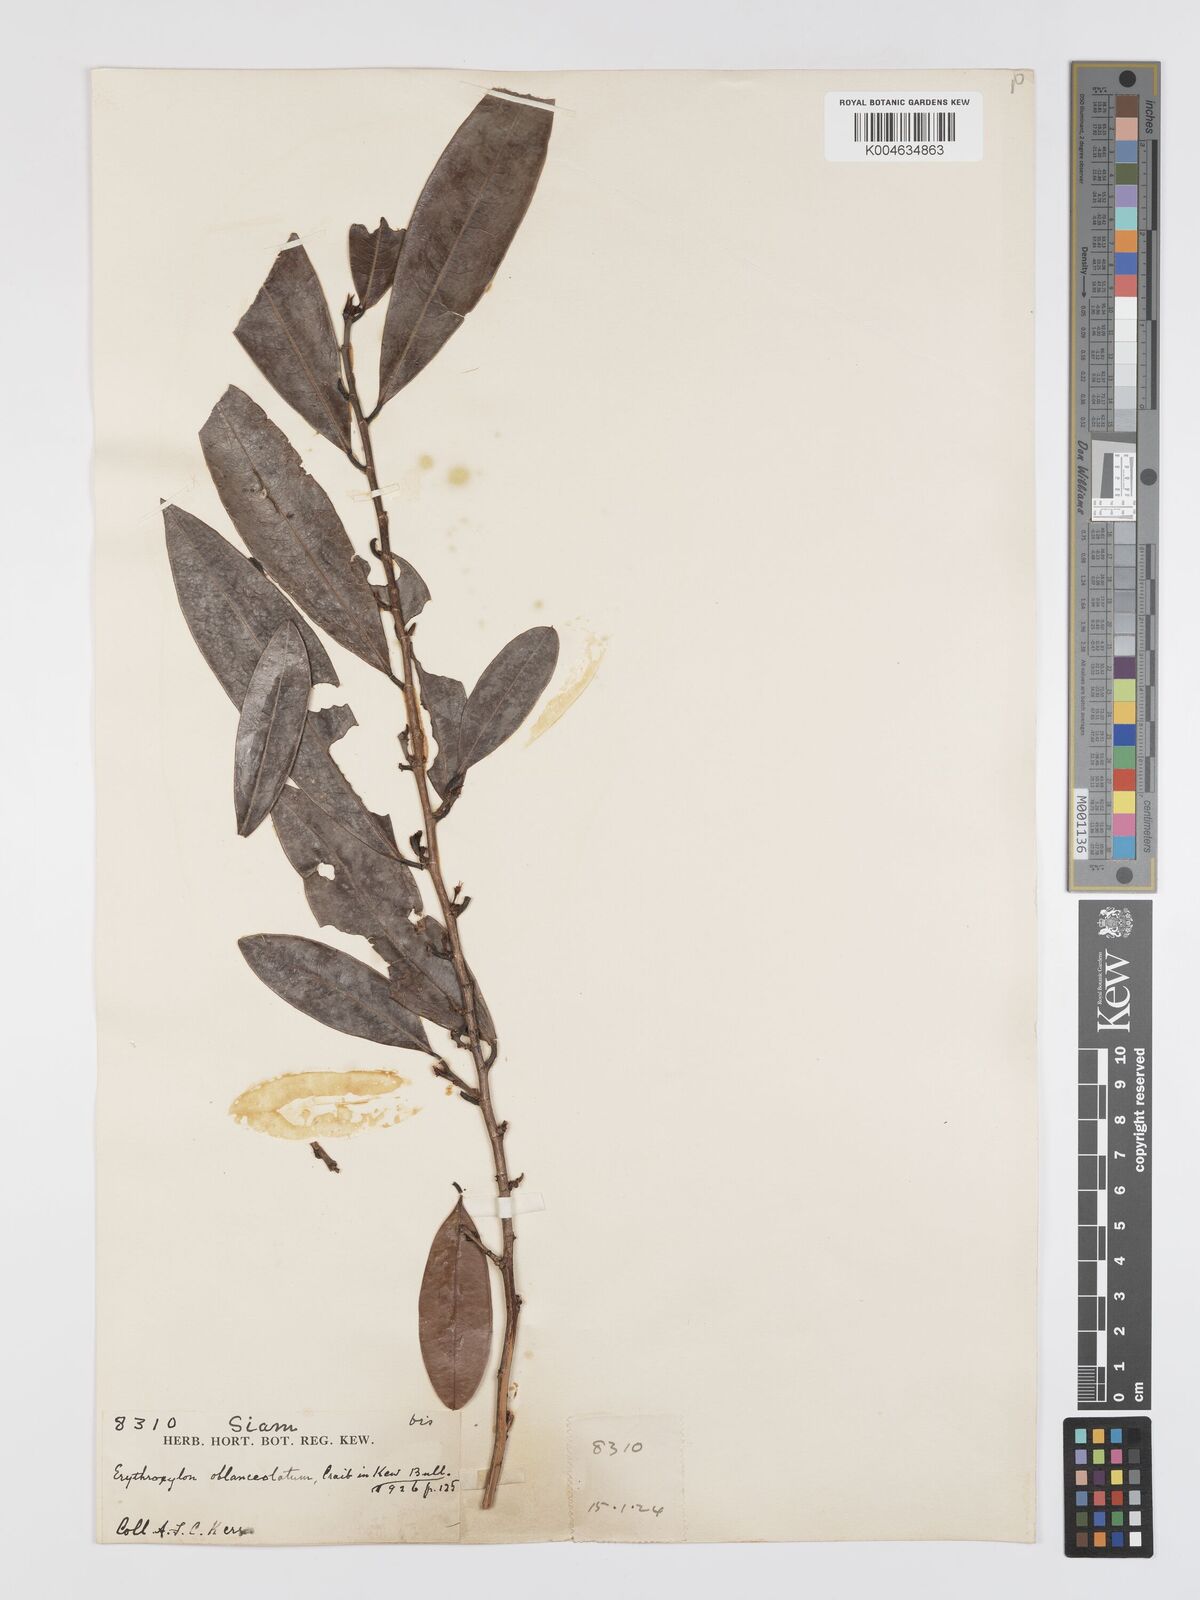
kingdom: Plantae
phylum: Tracheophyta
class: Magnoliopsida
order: Malpighiales
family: Erythroxylaceae
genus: Erythroxylum
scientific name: Erythroxylum cuneatum
